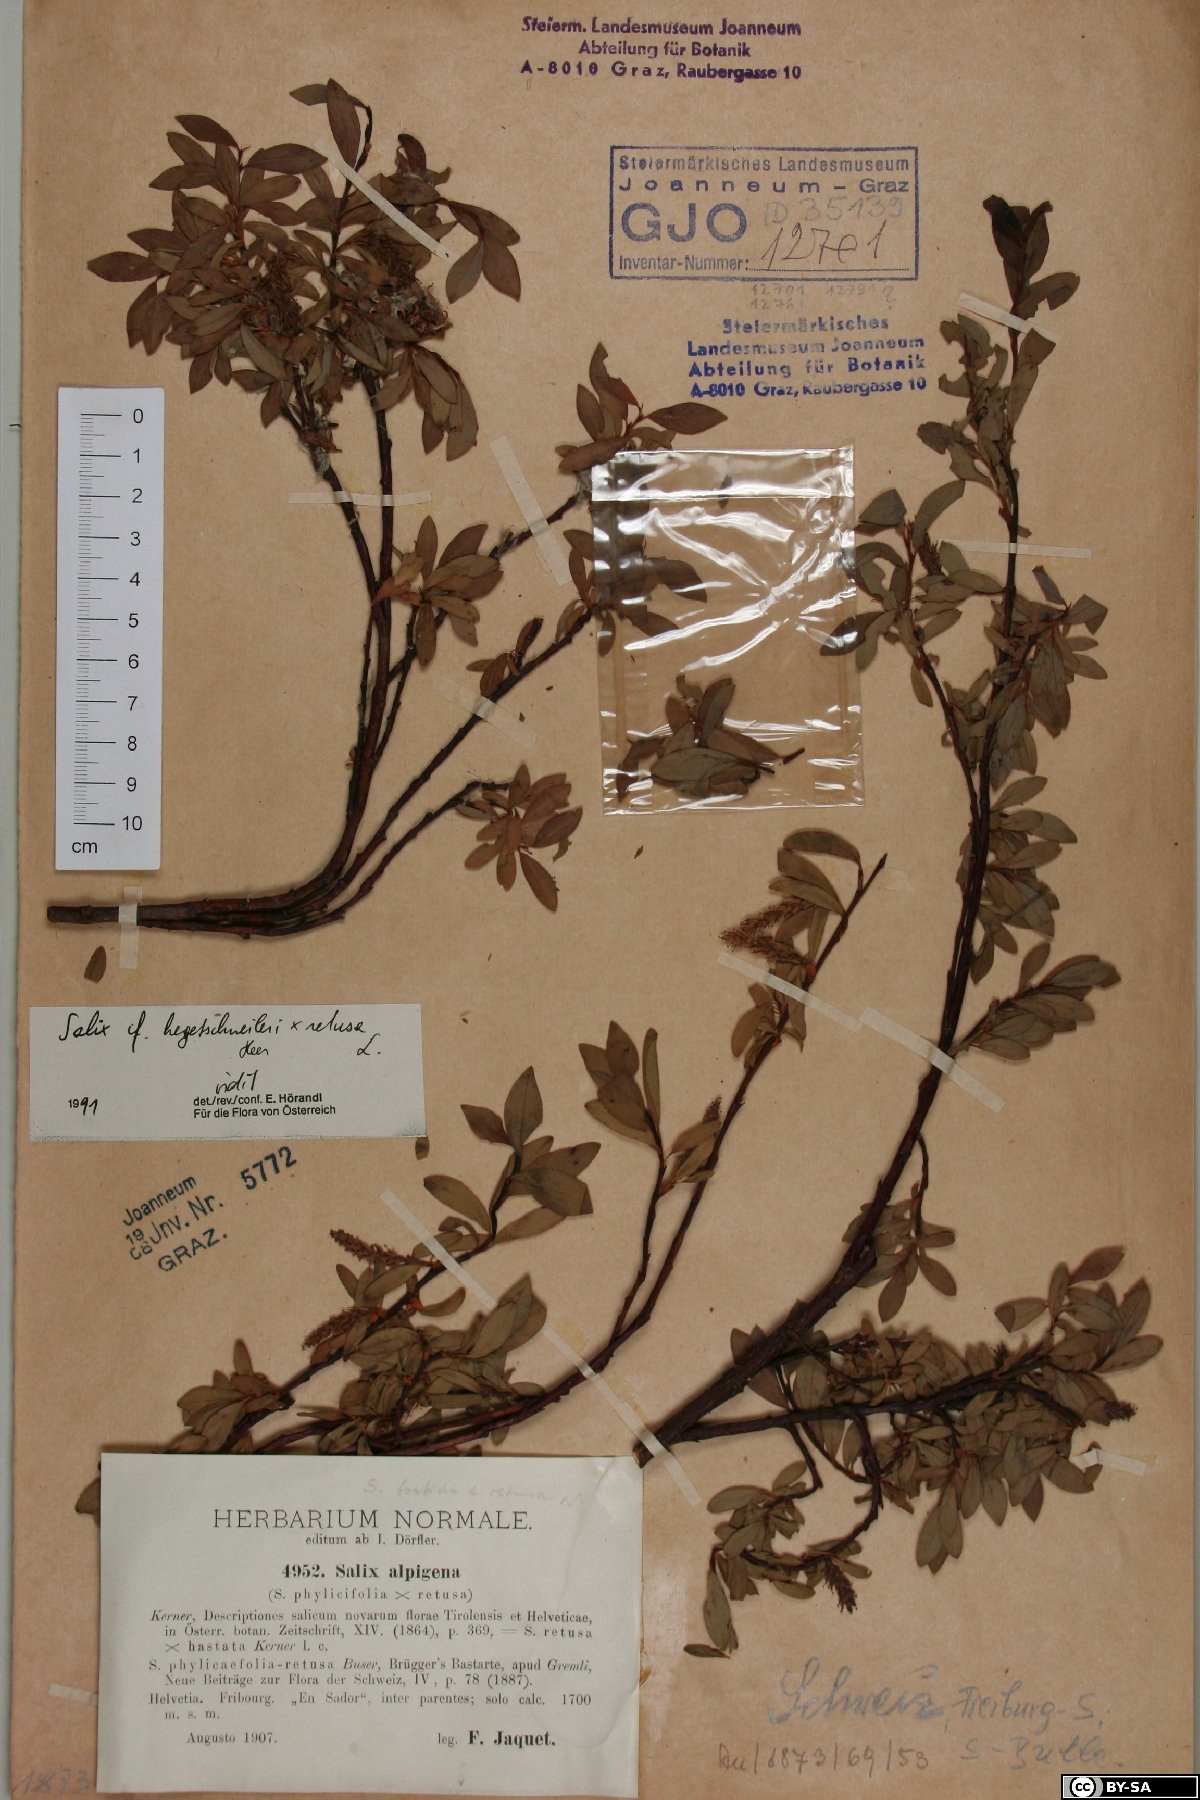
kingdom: Plantae
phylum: Tracheophyta
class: Magnoliopsida
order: Malpighiales
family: Salicaceae
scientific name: Salicaceae
